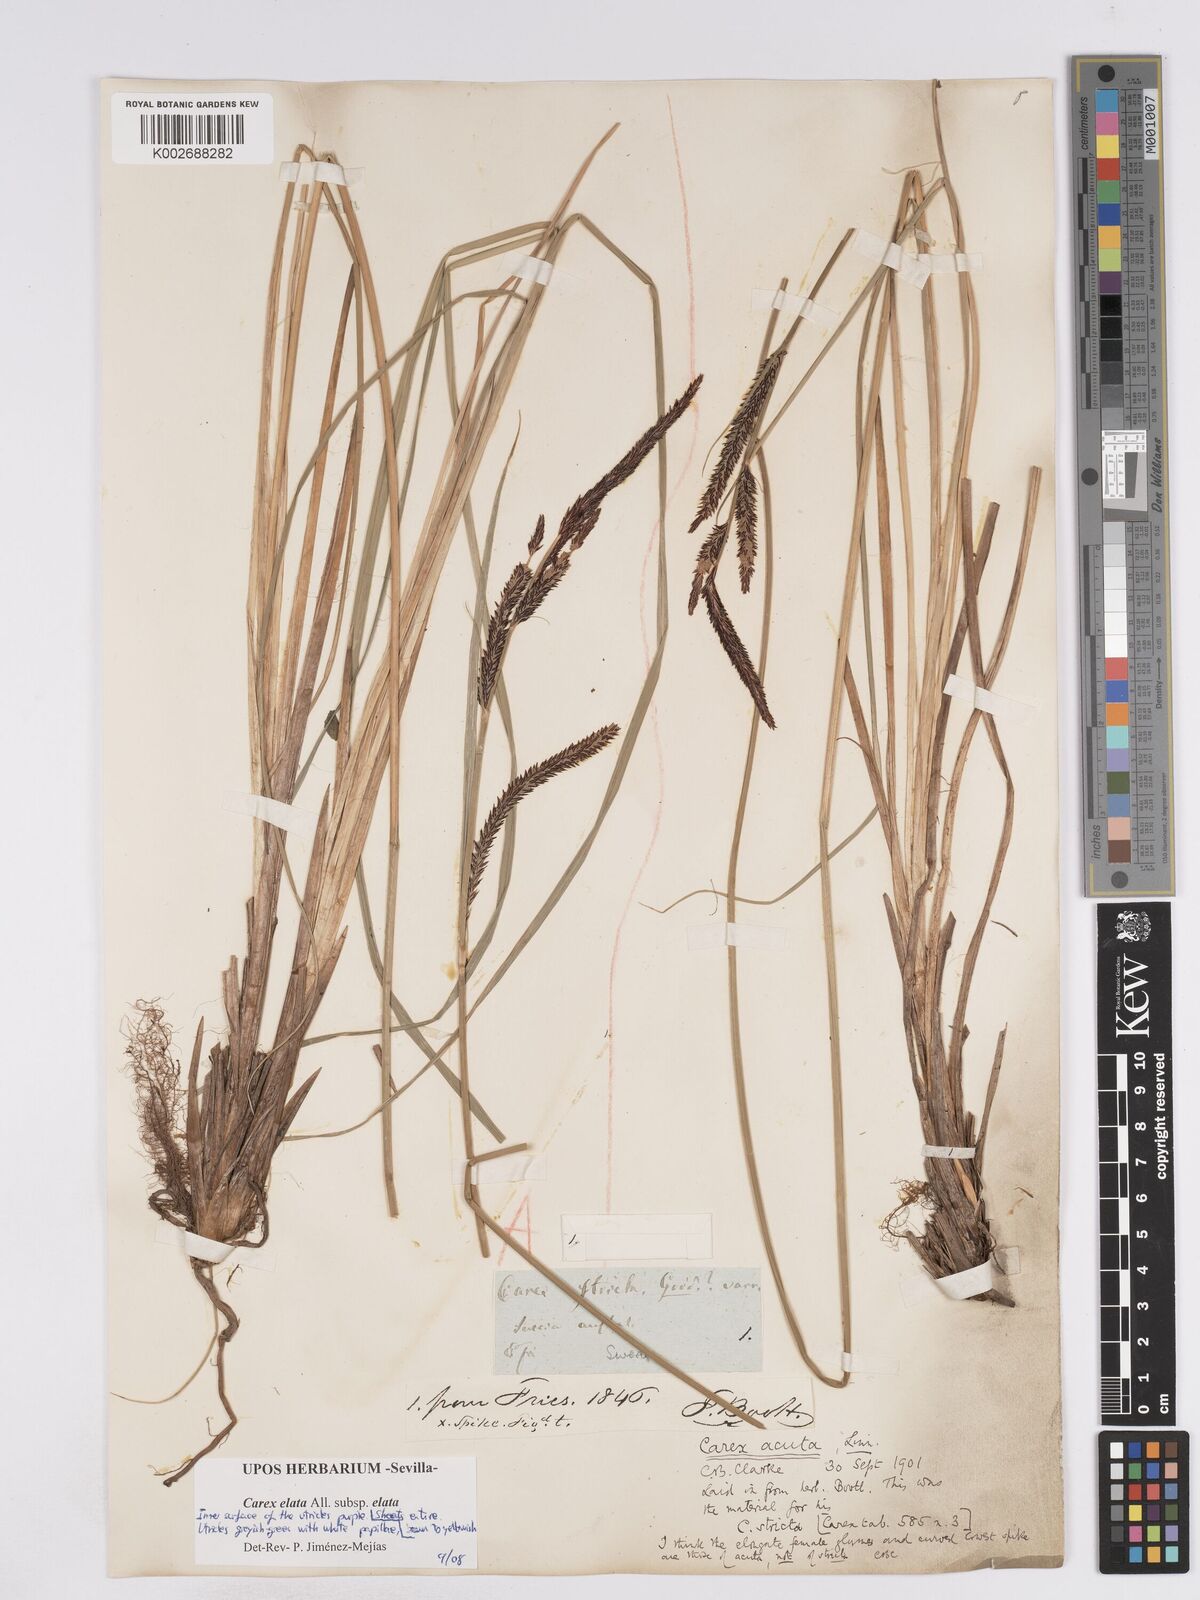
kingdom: Plantae
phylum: Tracheophyta
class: Liliopsida
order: Poales
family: Cyperaceae
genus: Carex
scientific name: Carex elata
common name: Tufted sedge
